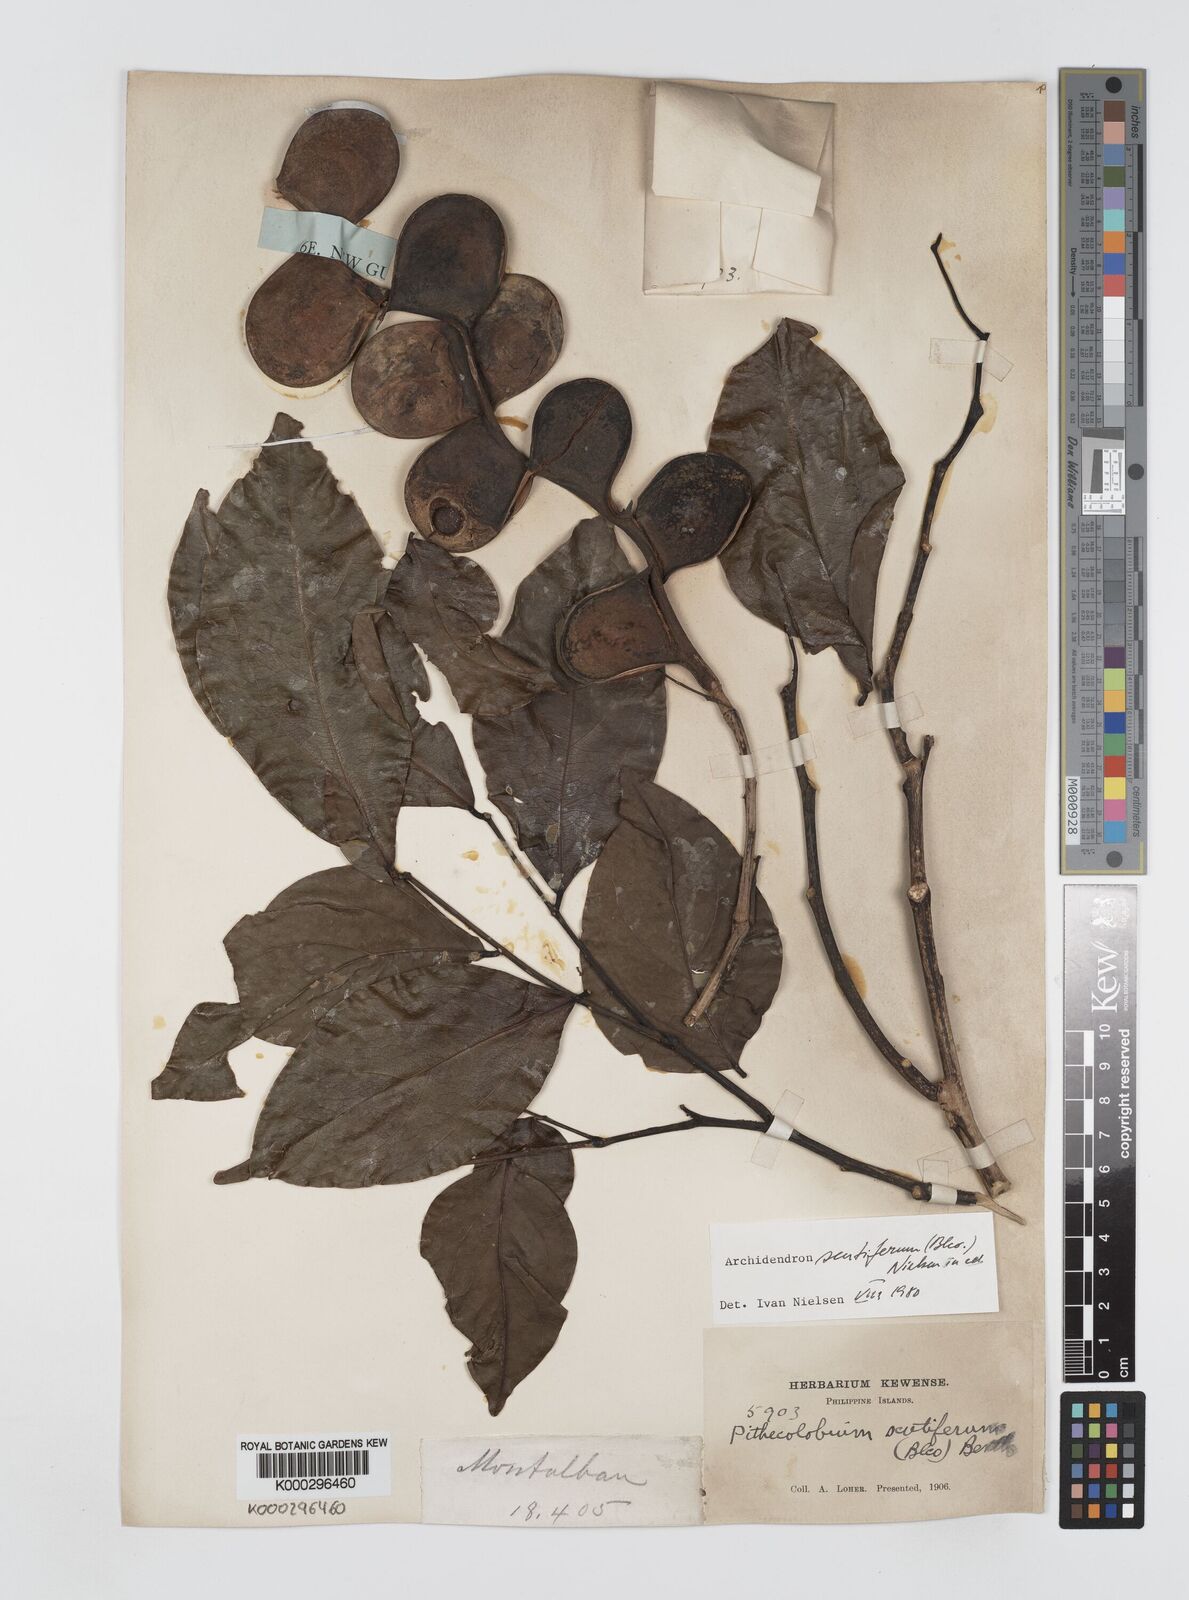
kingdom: Plantae
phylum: Tracheophyta
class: Magnoliopsida
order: Fabales
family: Fabaceae
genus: Archidendron
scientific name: Archidendron scutiferum
